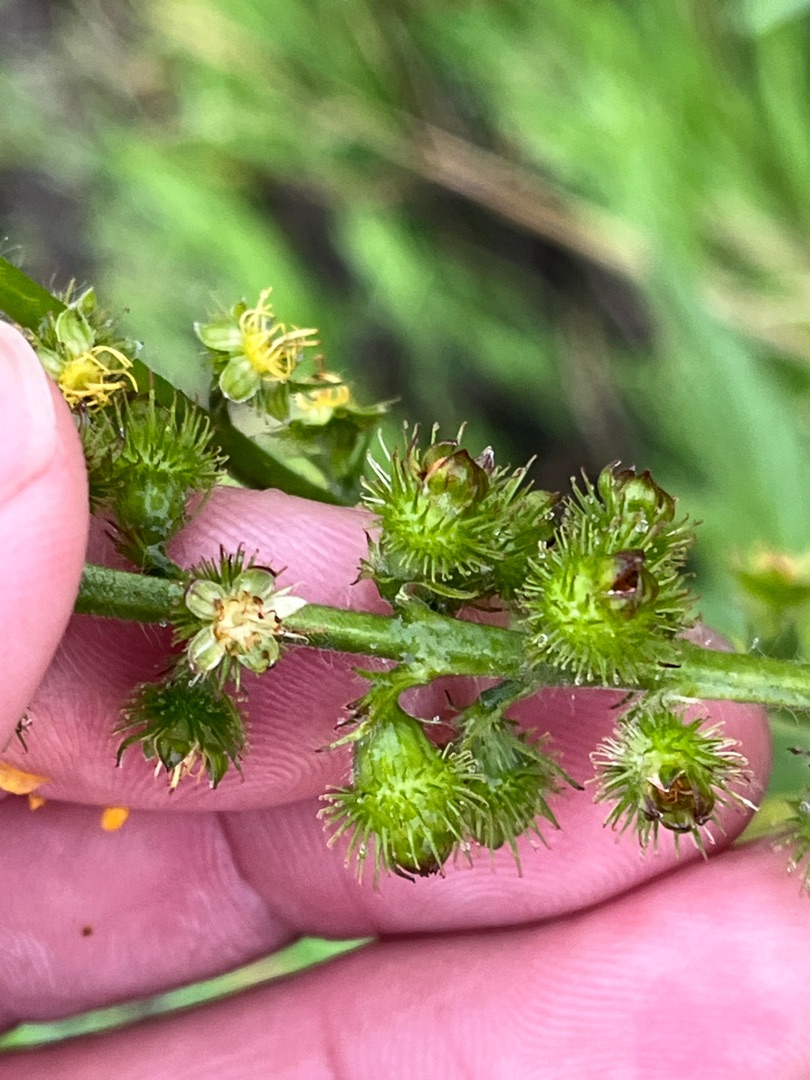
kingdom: Plantae
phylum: Tracheophyta
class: Magnoliopsida
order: Rosales
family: Rosaceae
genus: Agrimonia
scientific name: Agrimonia procera
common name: Vellugtende agermåne
